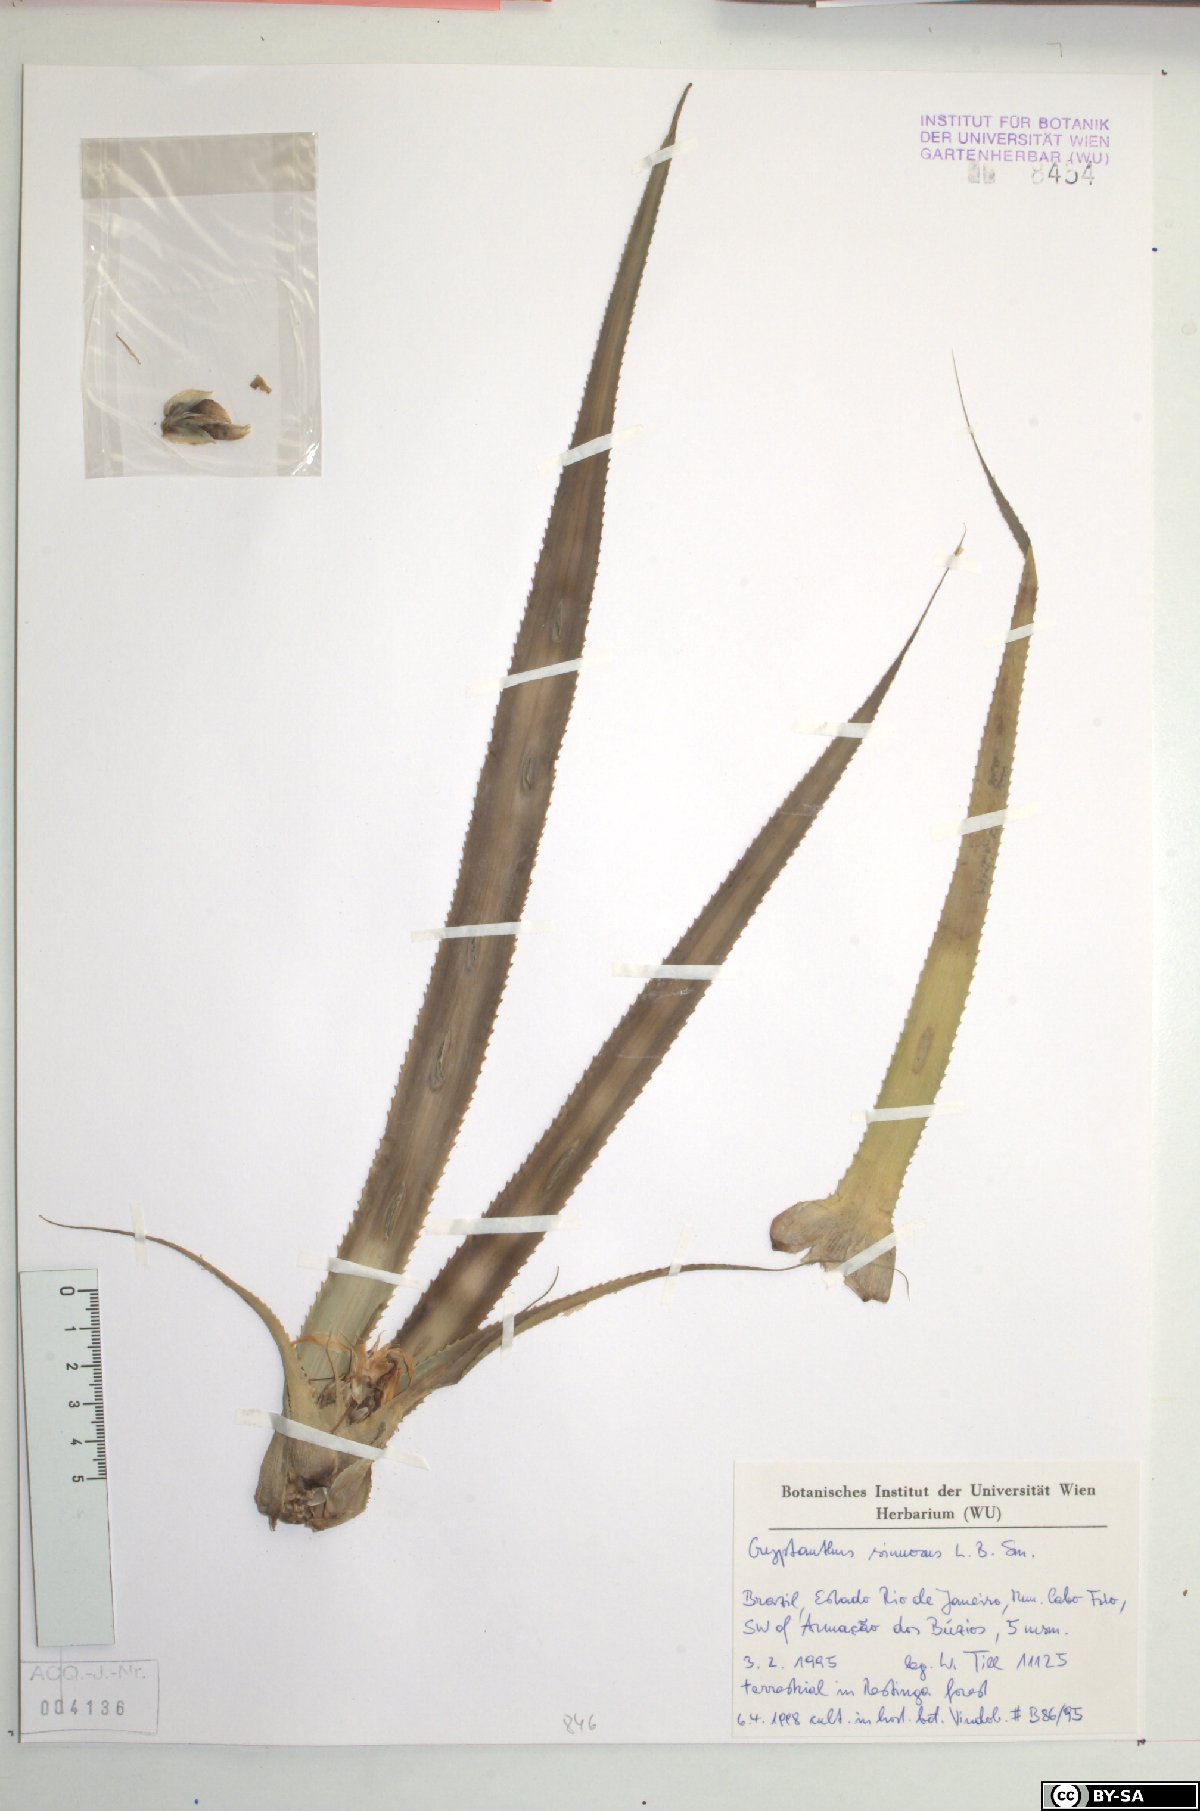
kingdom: Plantae
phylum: Tracheophyta
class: Liliopsida
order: Poales
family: Bromeliaceae
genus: Cryptanthus
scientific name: Cryptanthus acaulis
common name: Starfishplant
